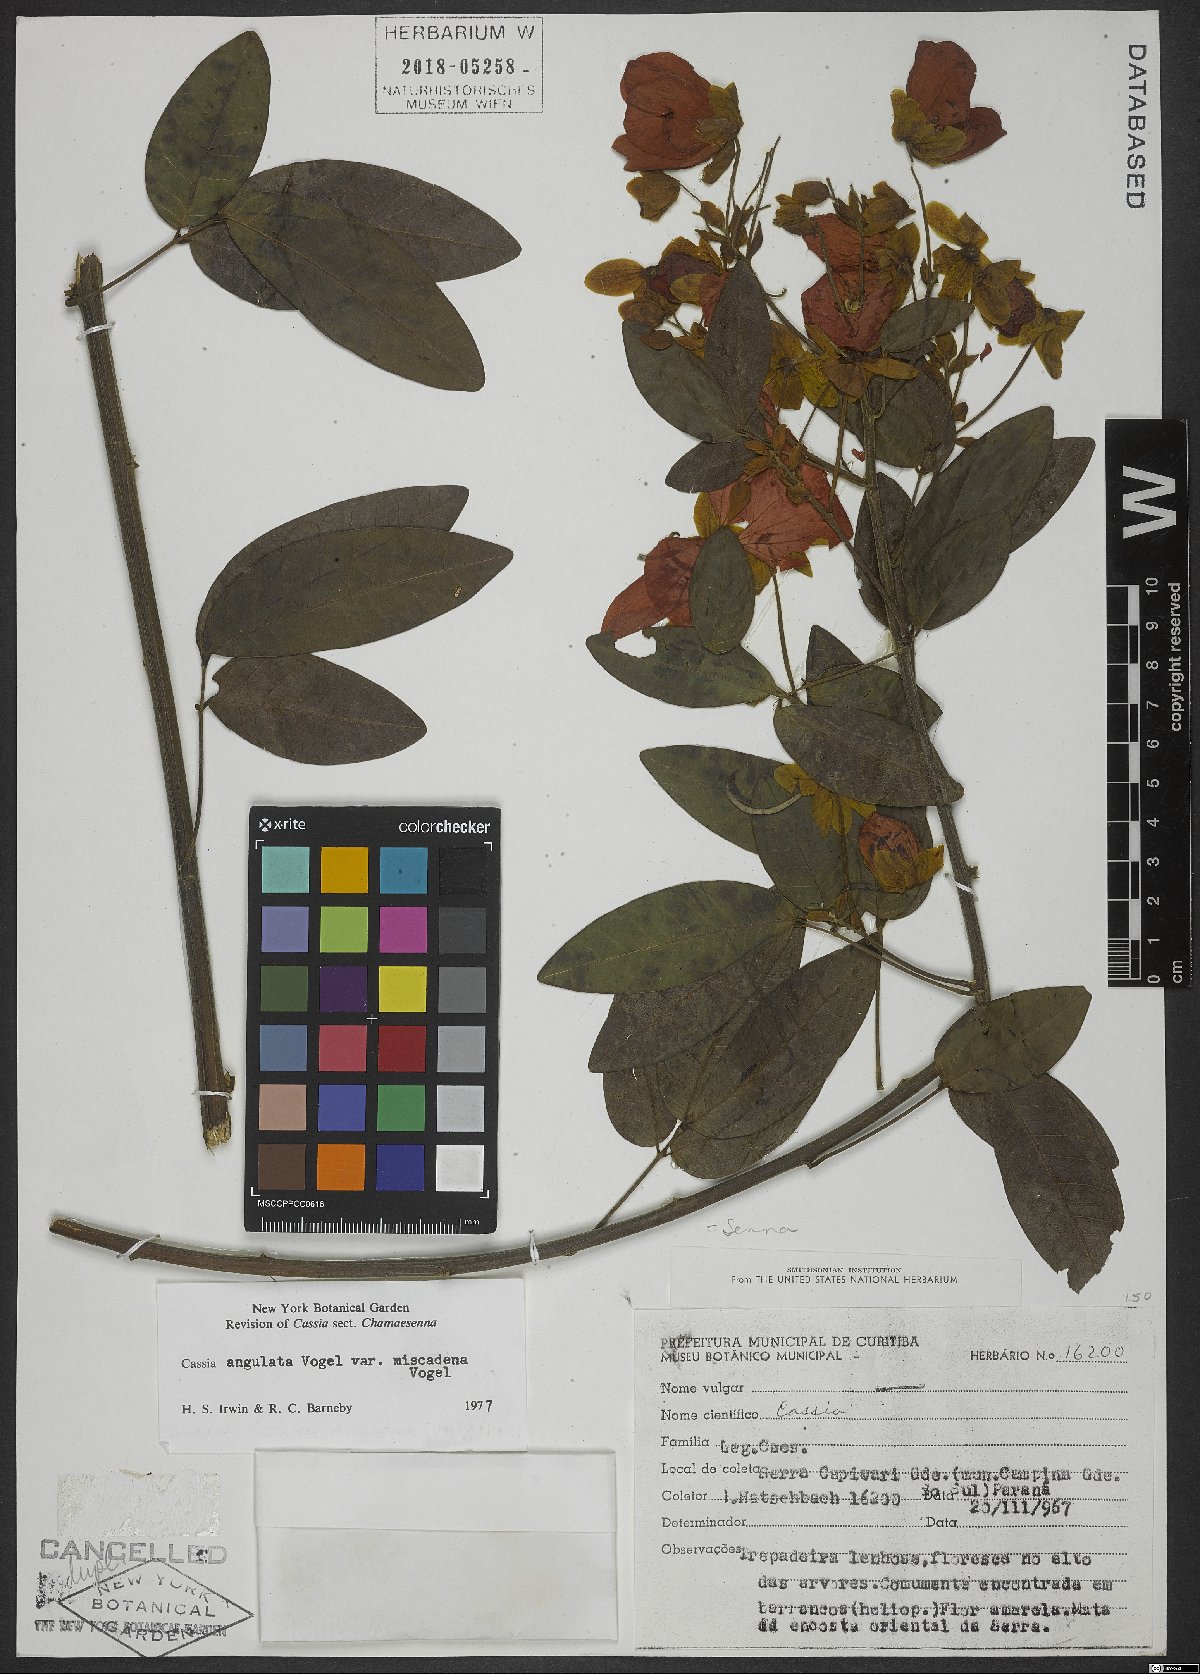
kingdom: Plantae
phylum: Tracheophyta
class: Magnoliopsida
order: Fabales
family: Fabaceae
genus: Senna
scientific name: Senna angulata
